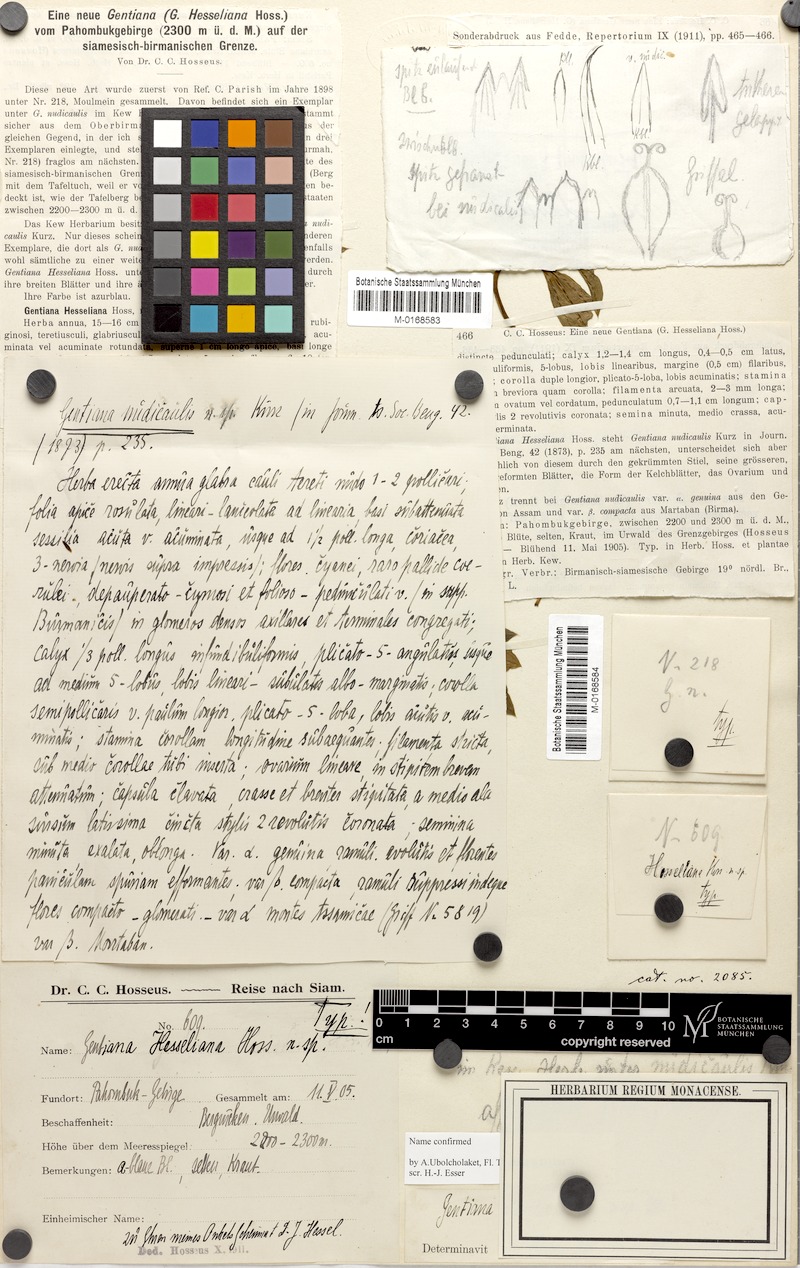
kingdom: Plantae
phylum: Tracheophyta
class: Magnoliopsida
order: Gentianales
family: Gentianaceae
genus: Gentiana
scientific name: Gentiana hesseliana
